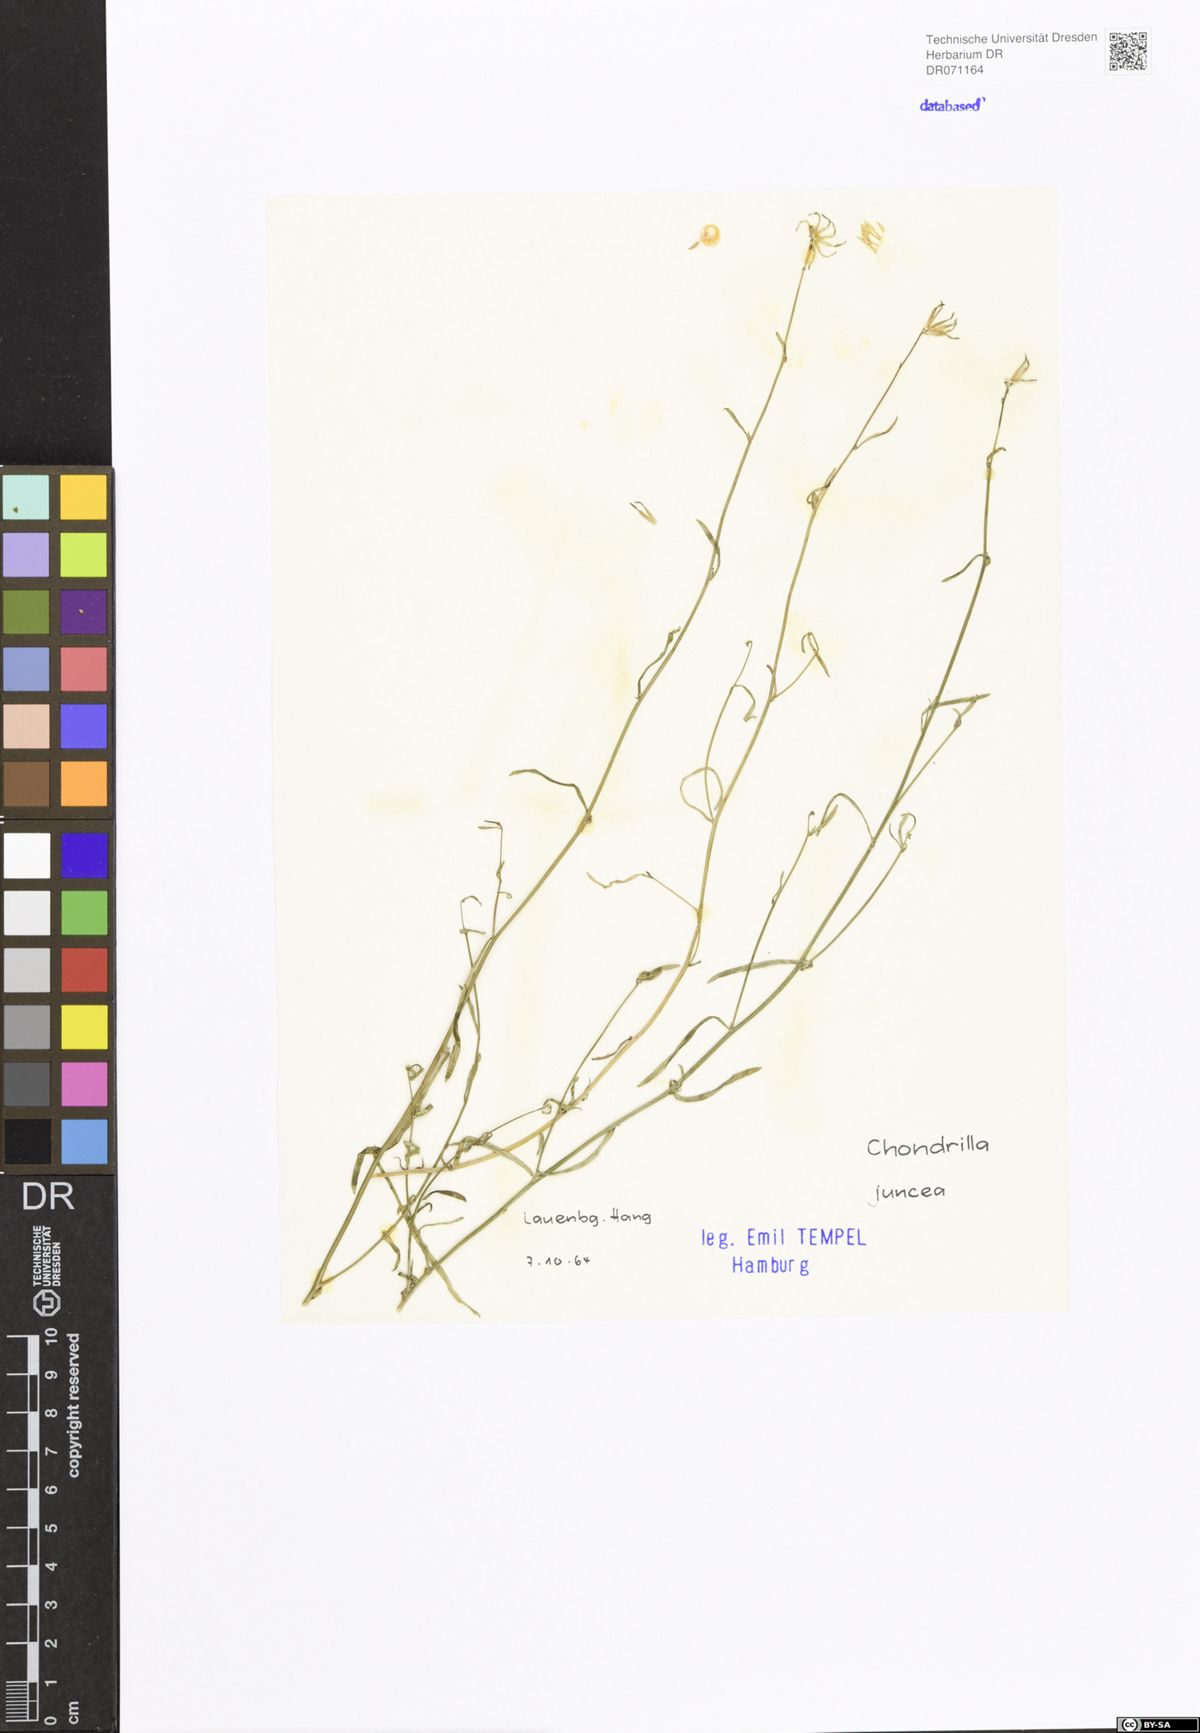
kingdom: Plantae
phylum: Tracheophyta
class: Magnoliopsida
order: Asterales
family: Asteraceae
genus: Chondrilla
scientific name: Chondrilla juncea
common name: Skeleton weed
